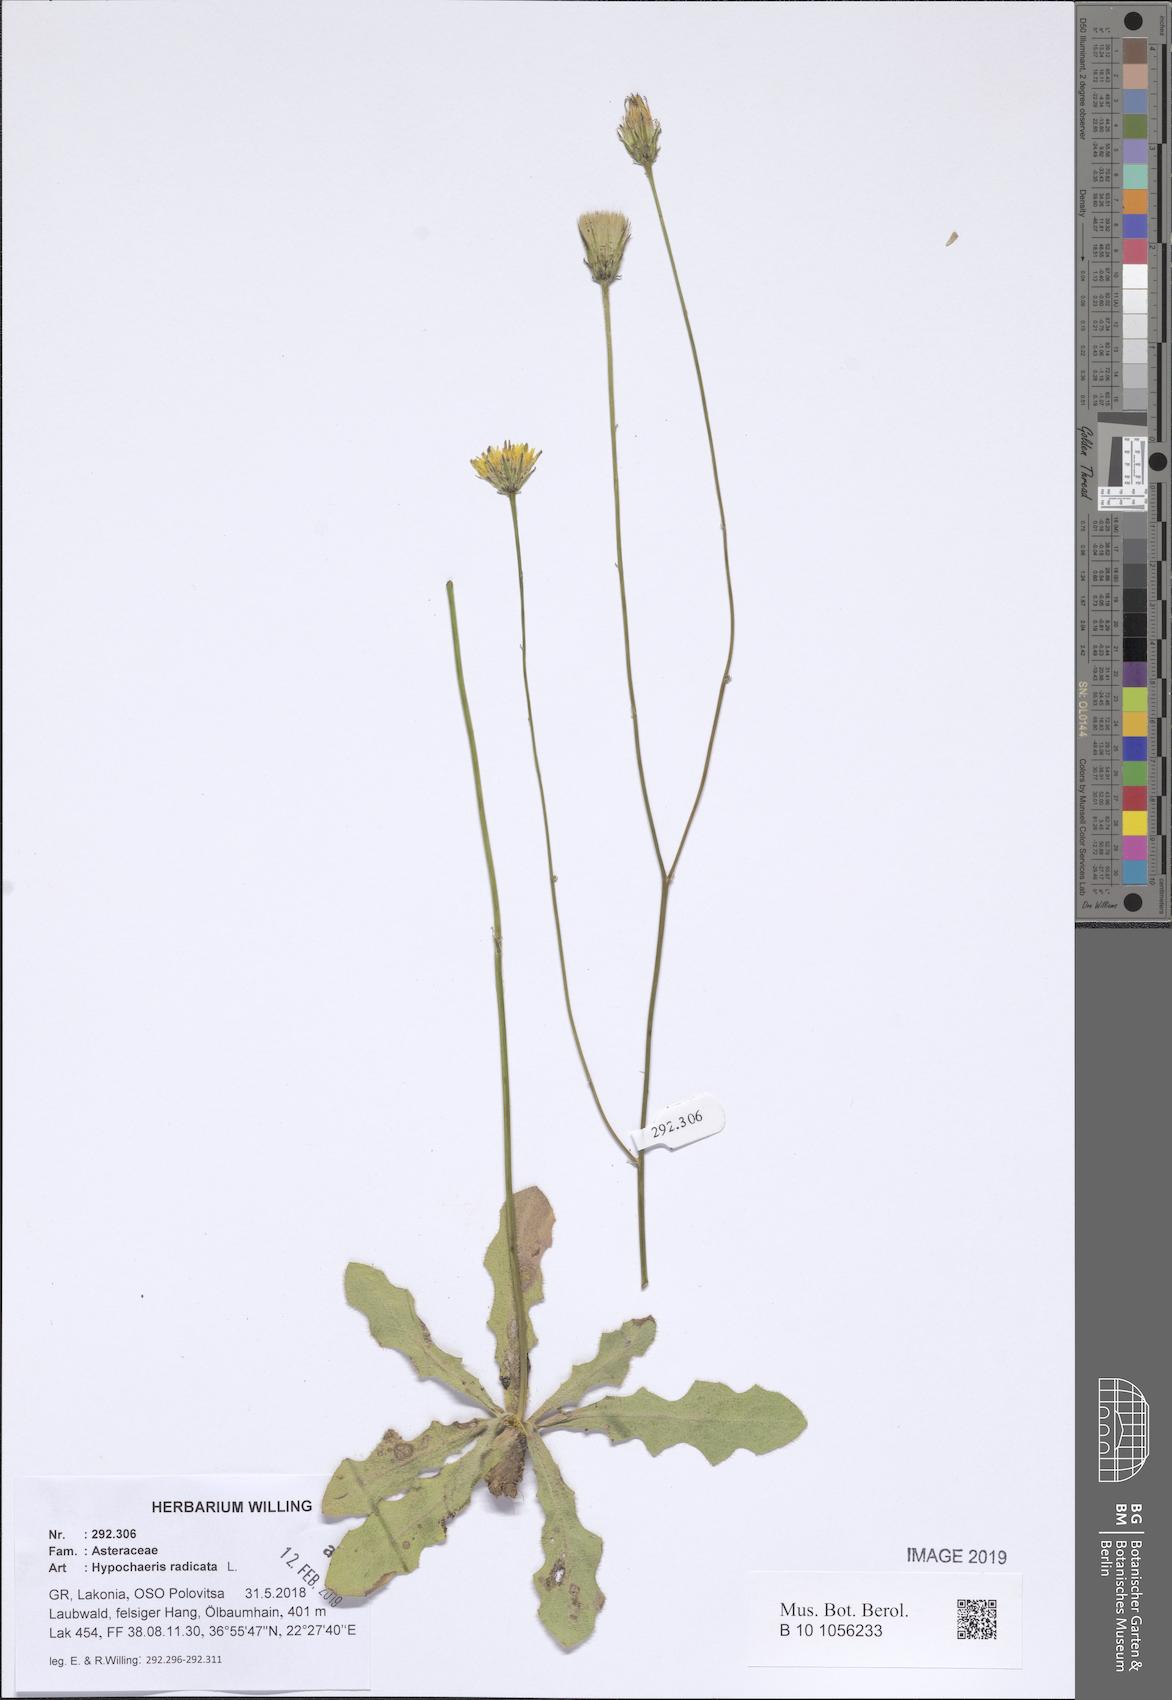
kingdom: Plantae
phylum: Tracheophyta
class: Magnoliopsida
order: Asterales
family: Asteraceae
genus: Hypochaeris
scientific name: Hypochaeris radicata
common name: Flatweed
